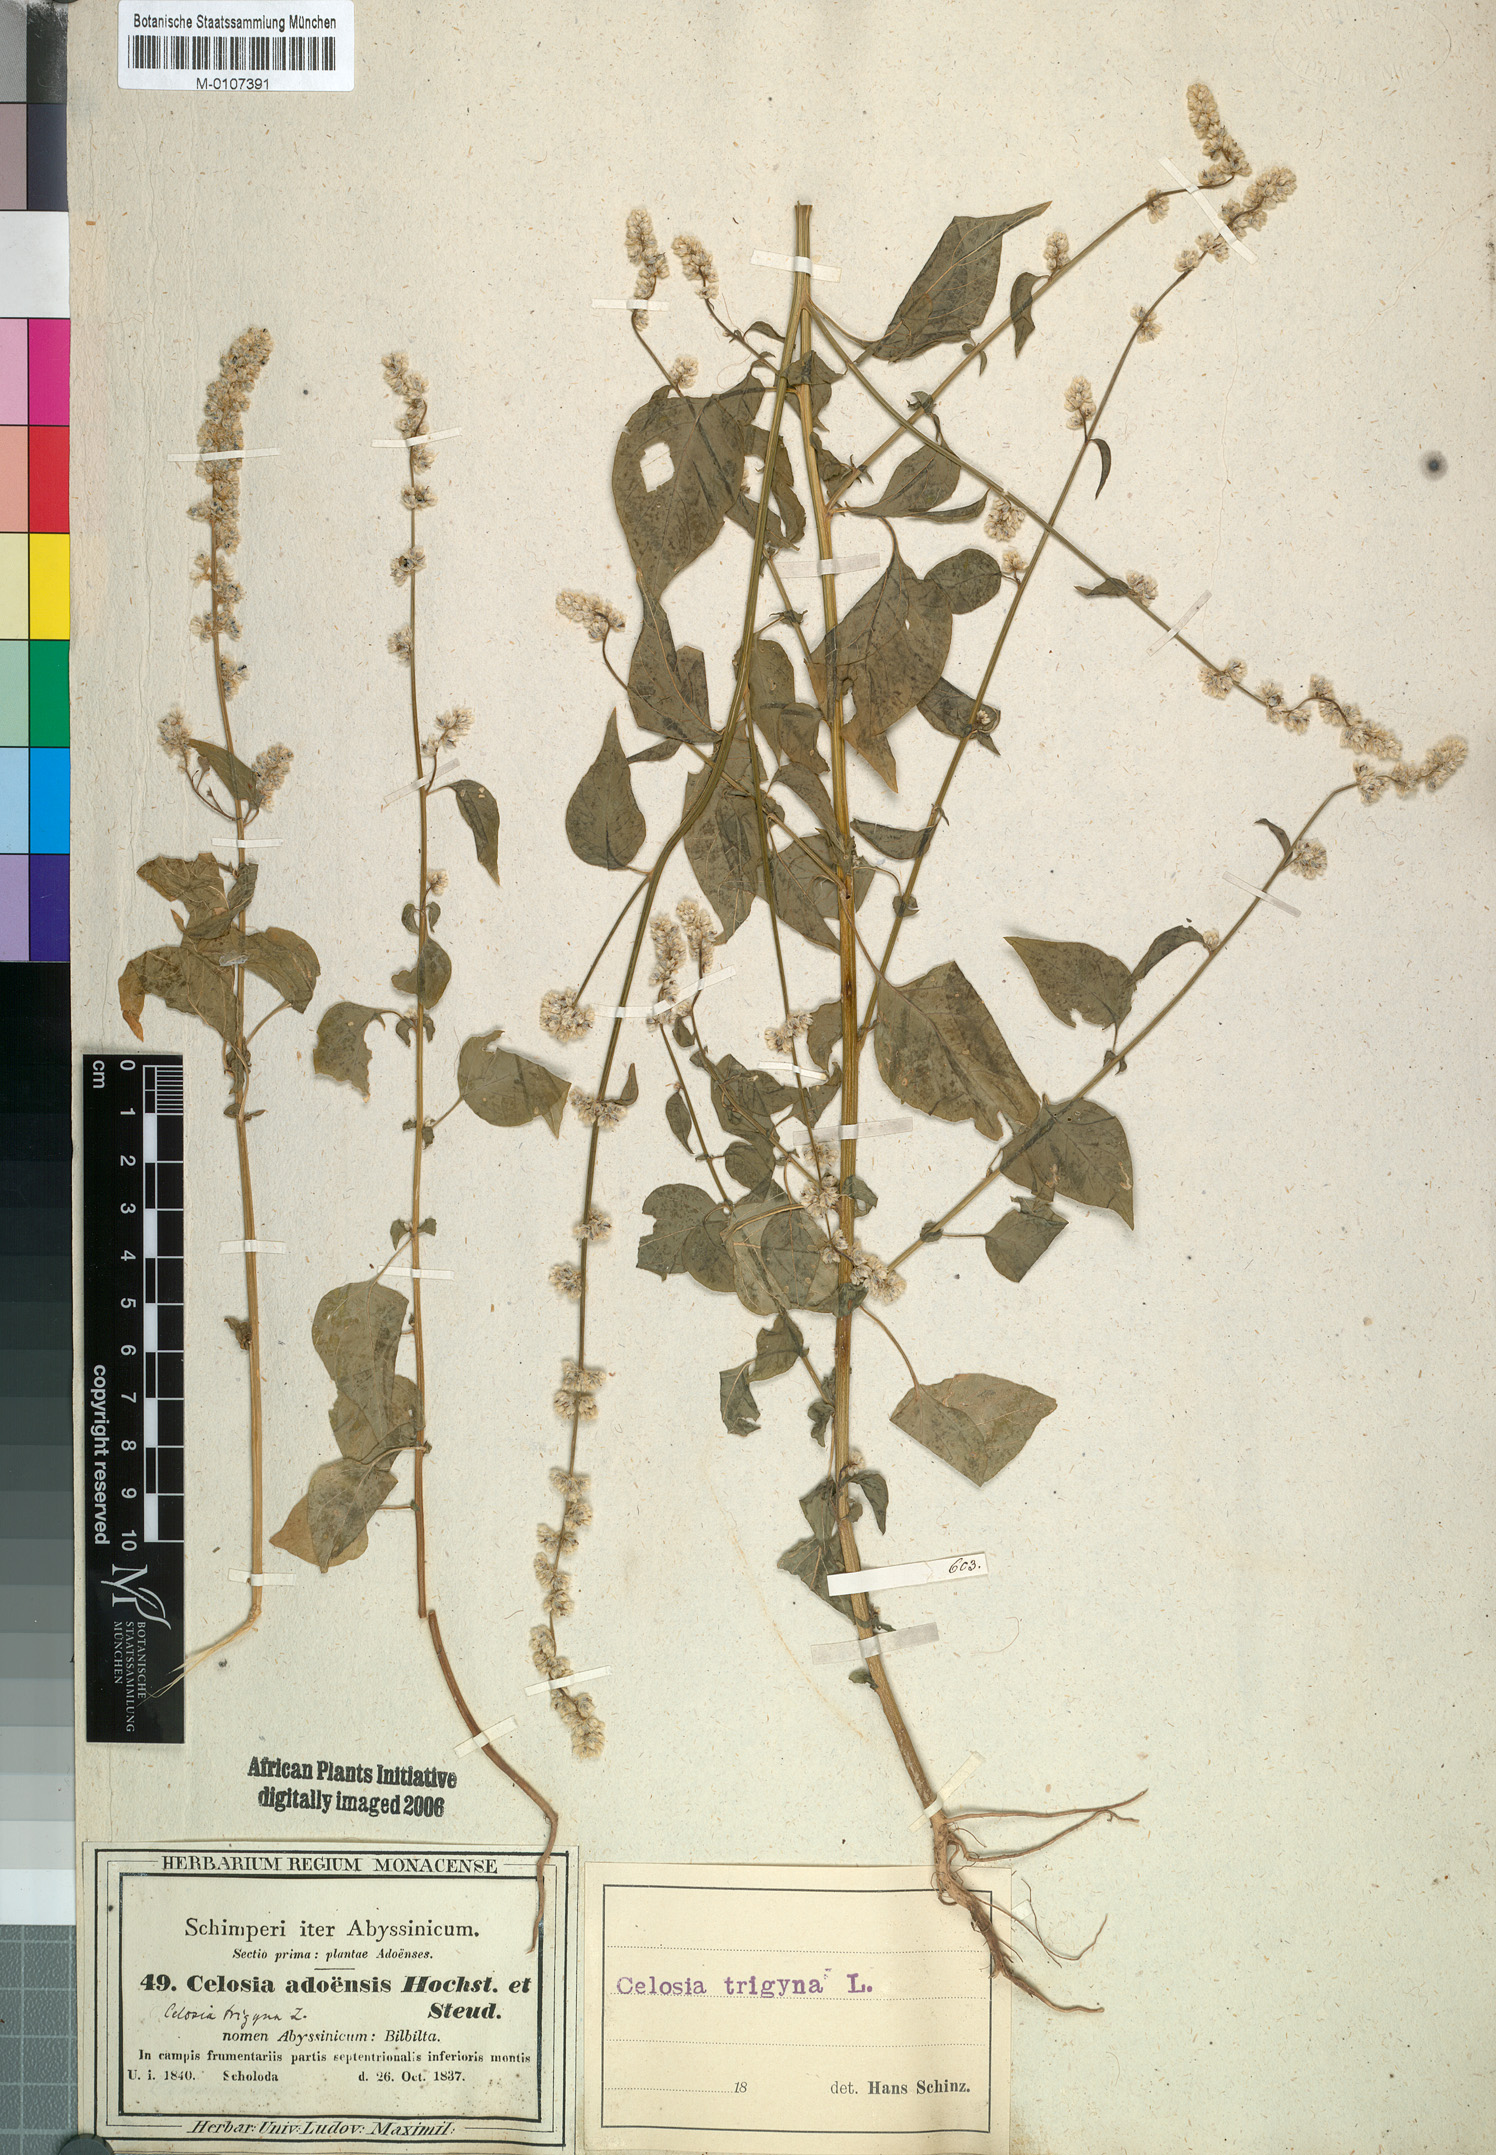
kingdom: Plantae
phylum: Tracheophyta
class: Magnoliopsida
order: Caryophyllales
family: Amaranthaceae
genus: Celosia
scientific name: Celosia trigyna
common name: Woolflower
